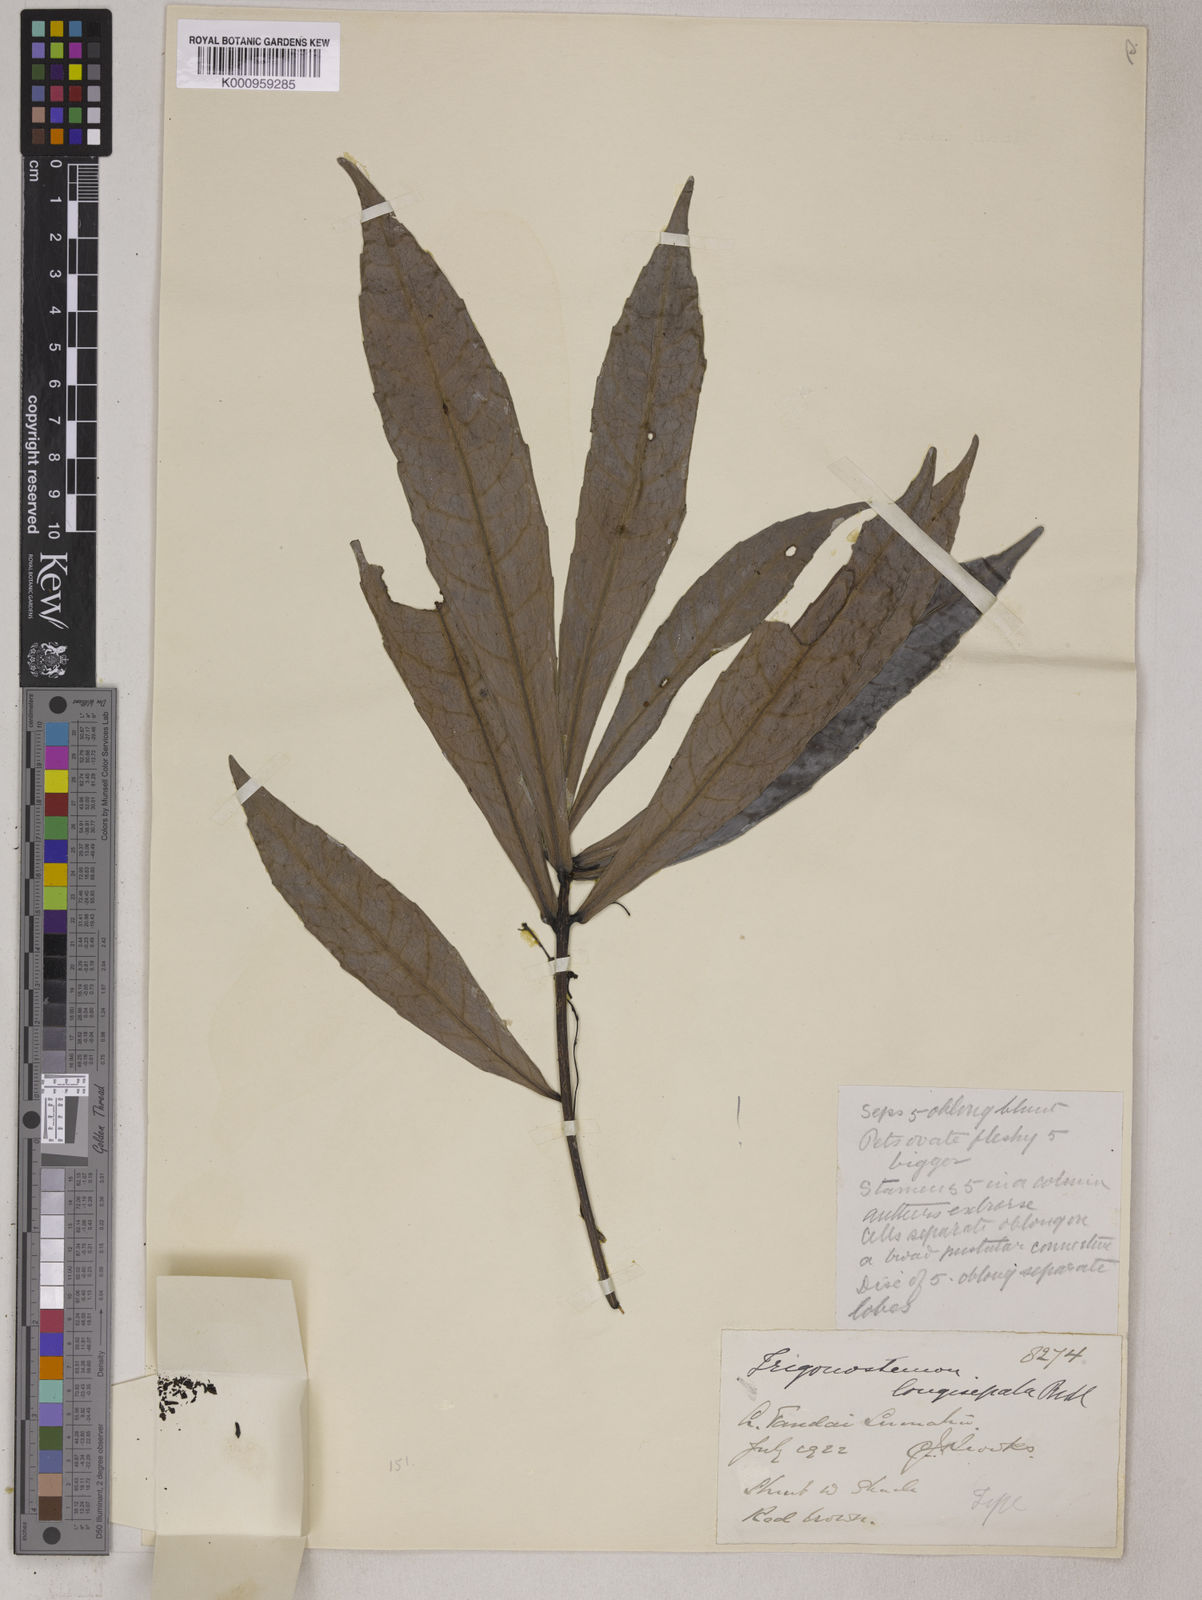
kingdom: Plantae
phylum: Tracheophyta
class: Magnoliopsida
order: Malpighiales
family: Euphorbiaceae
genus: Trigonostemon
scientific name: Trigonostemon beccarii
